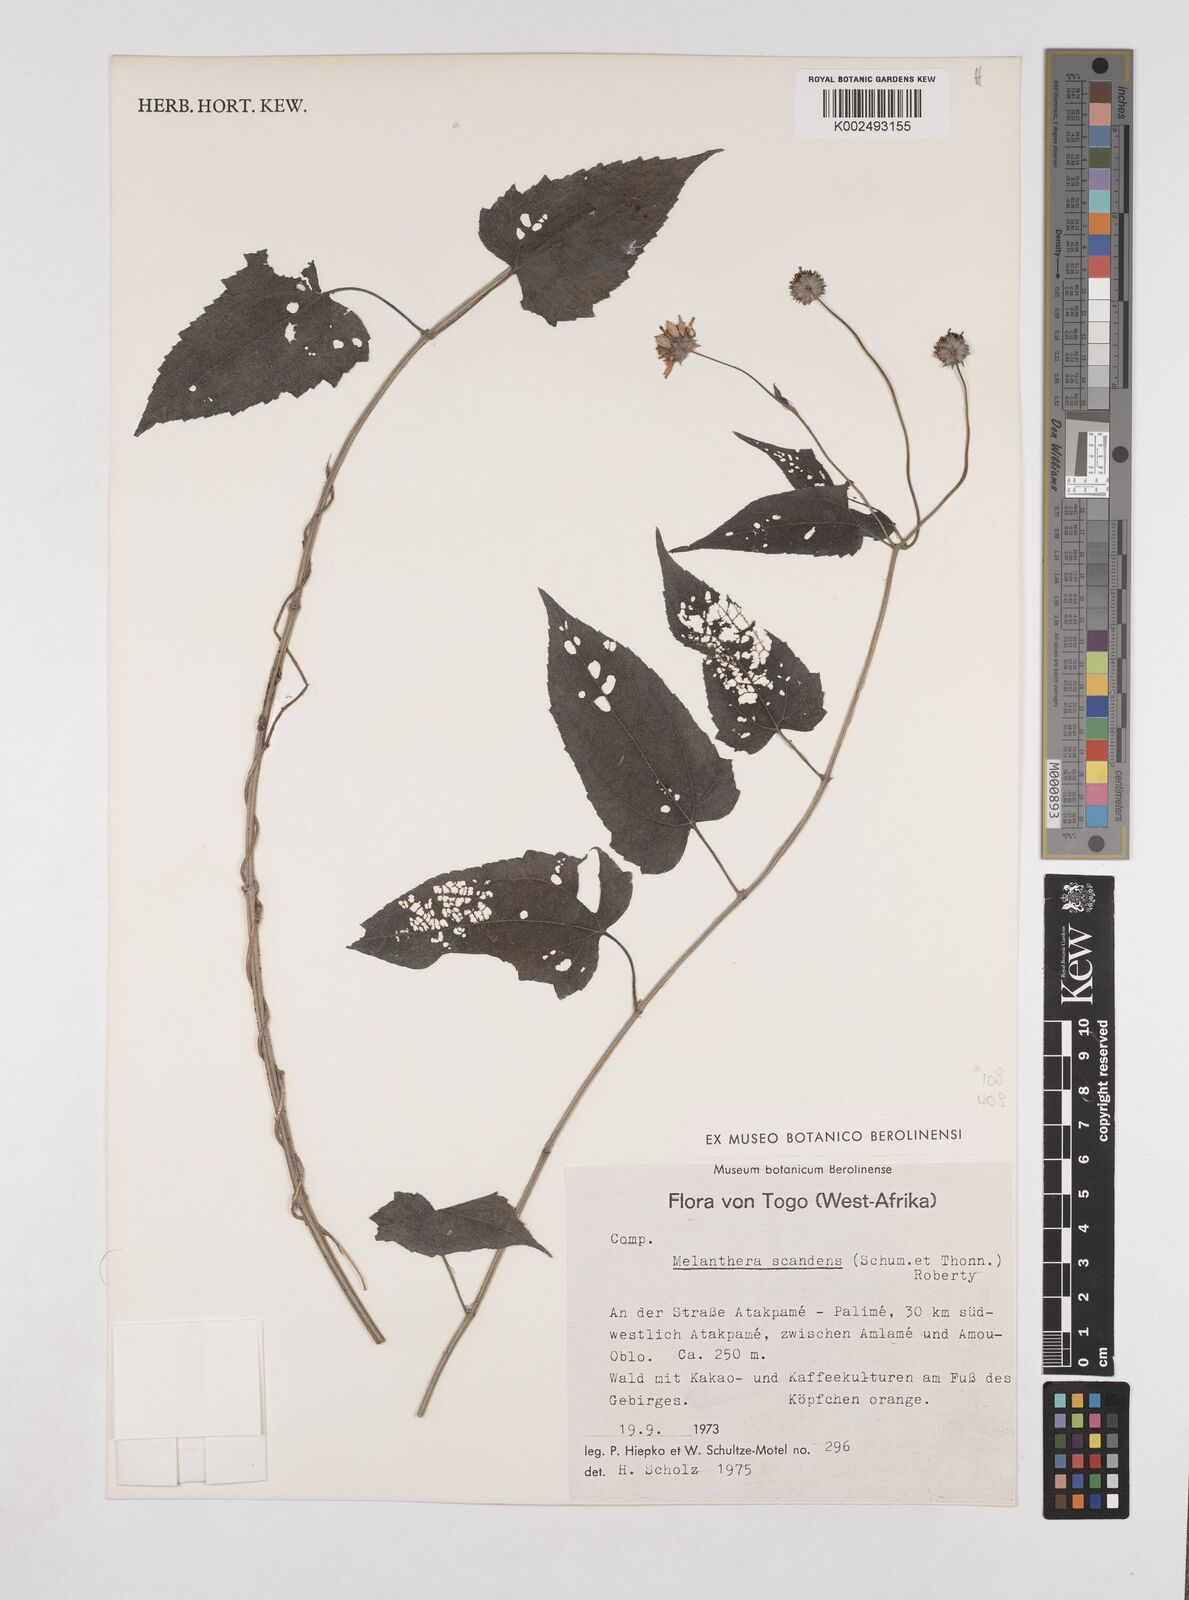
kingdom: Plantae
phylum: Tracheophyta
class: Magnoliopsida
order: Asterales
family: Asteraceae
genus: Lipotriche
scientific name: Lipotriche scandens
